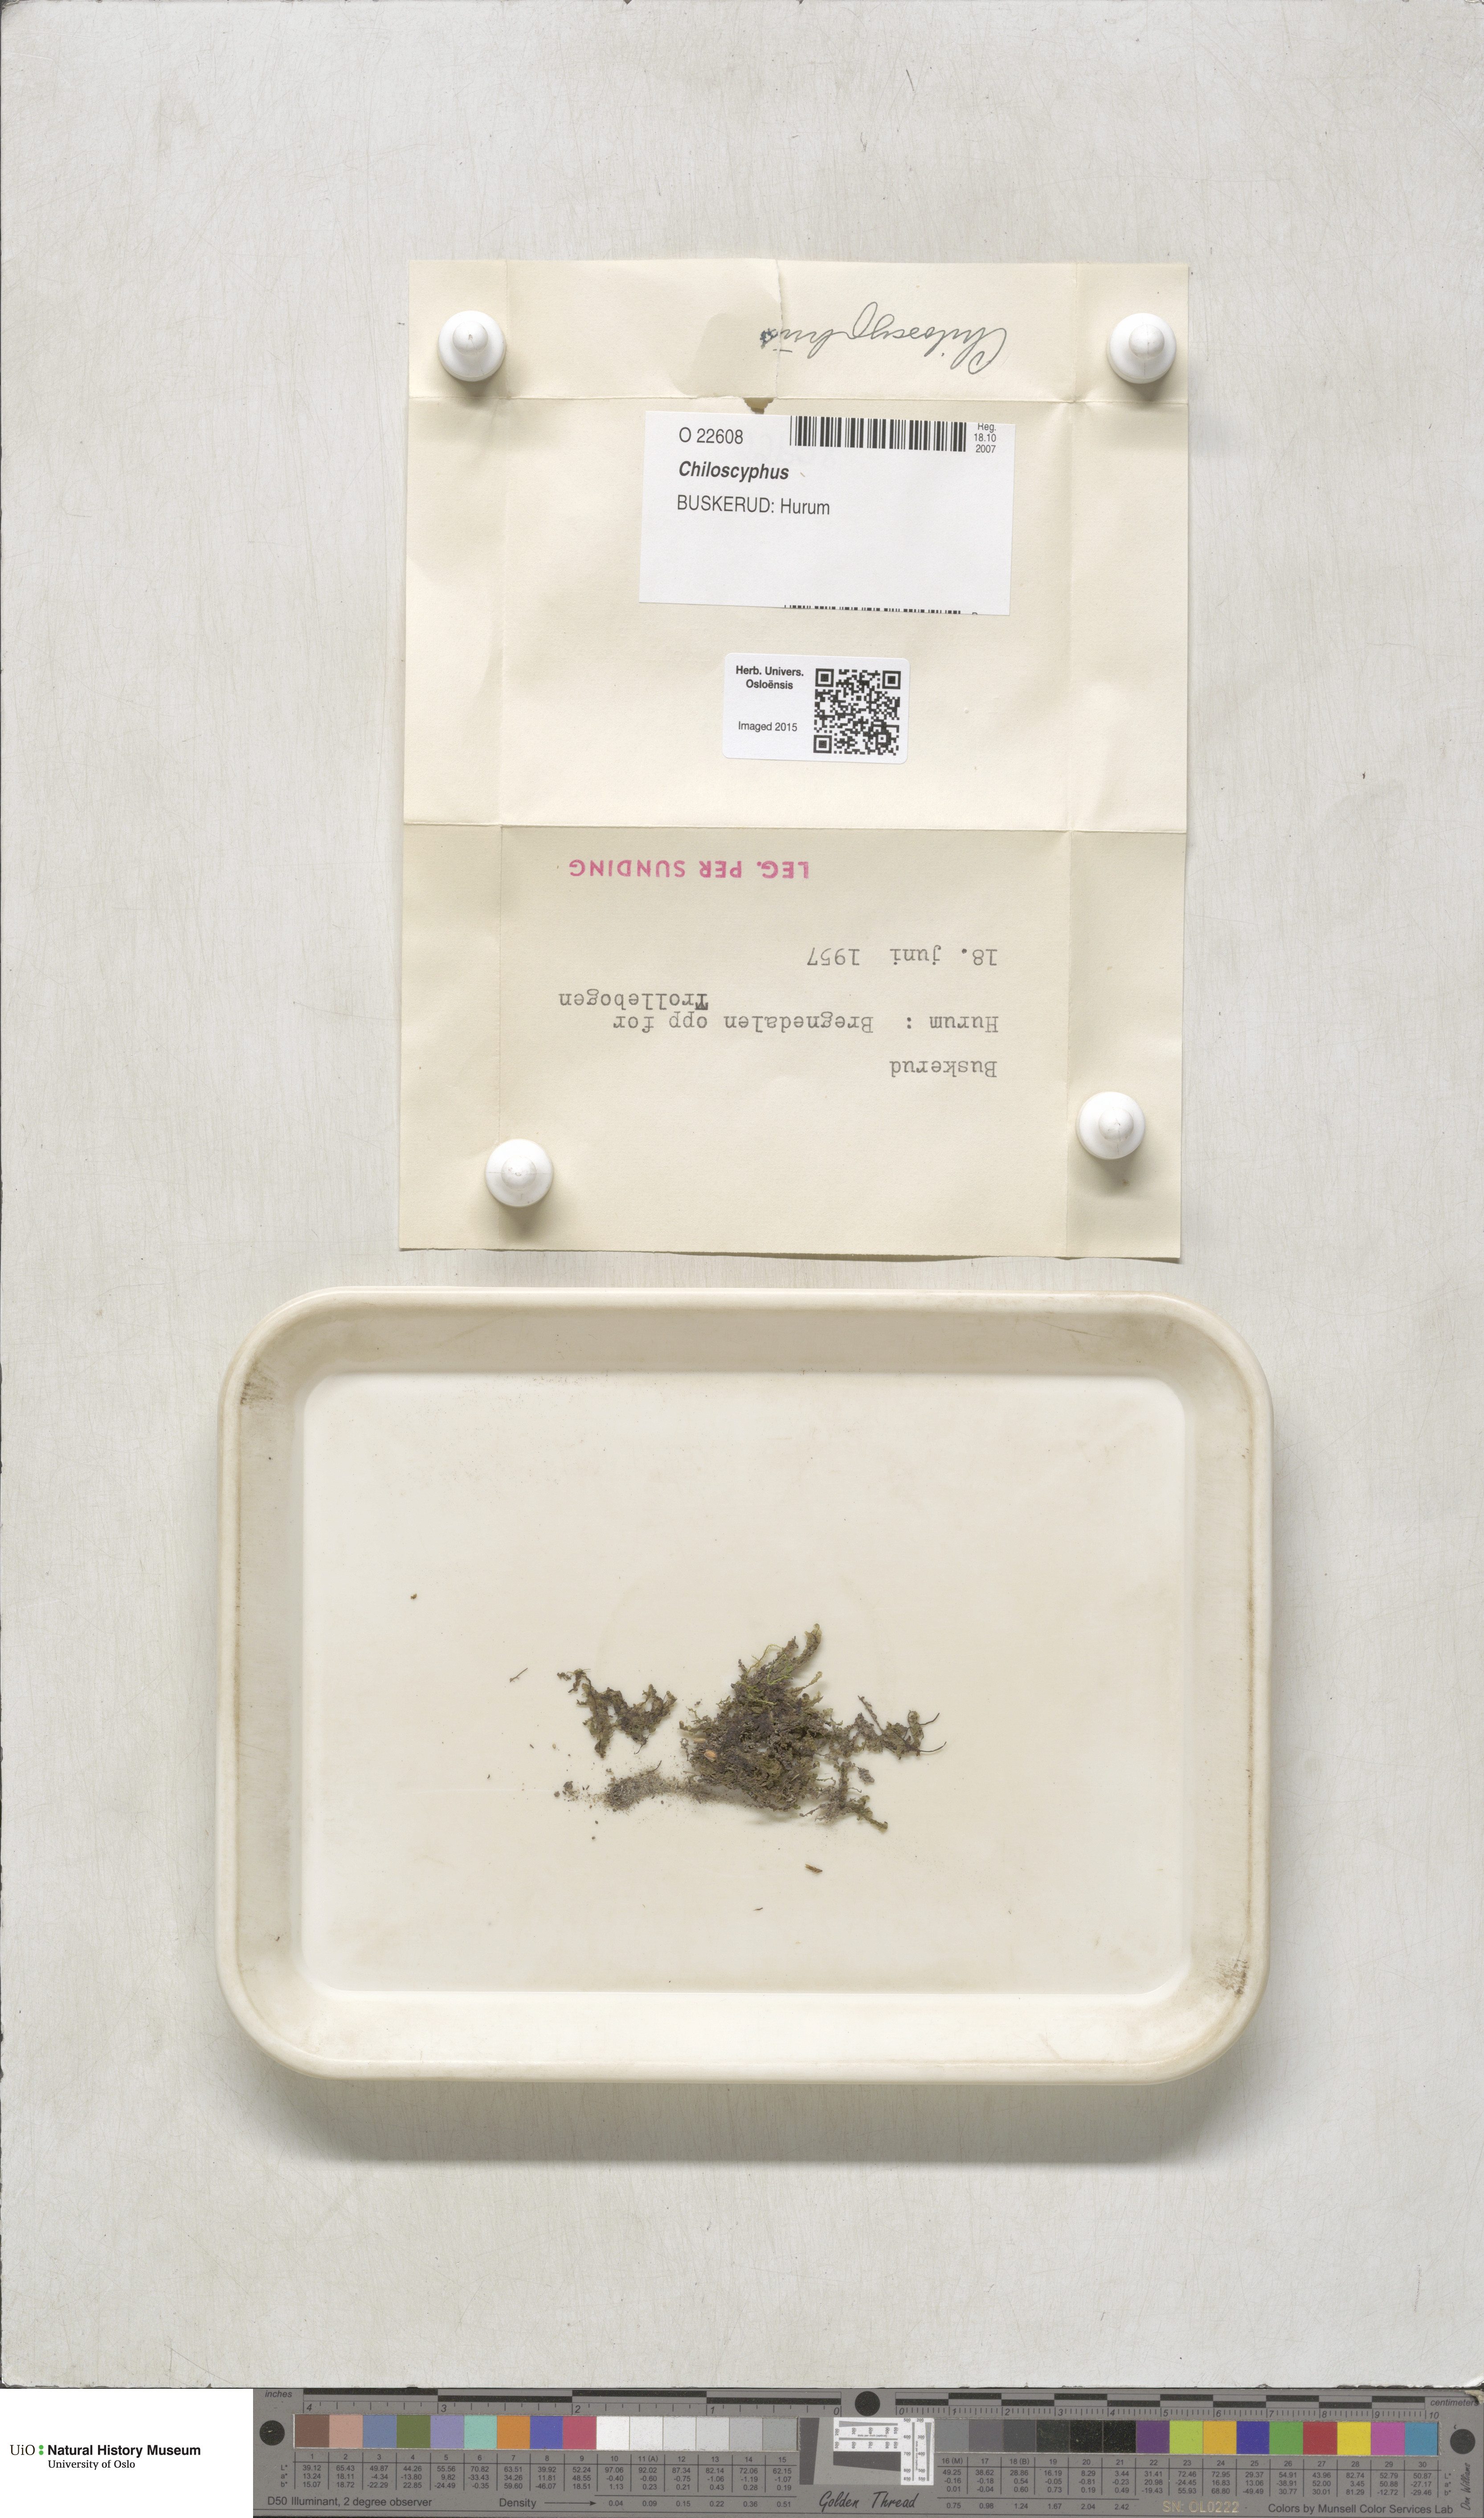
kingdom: Plantae
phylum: Marchantiophyta
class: Jungermanniopsida
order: Jungermanniales
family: Lophocoleaceae
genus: Chiloscyphus
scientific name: Chiloscyphus
